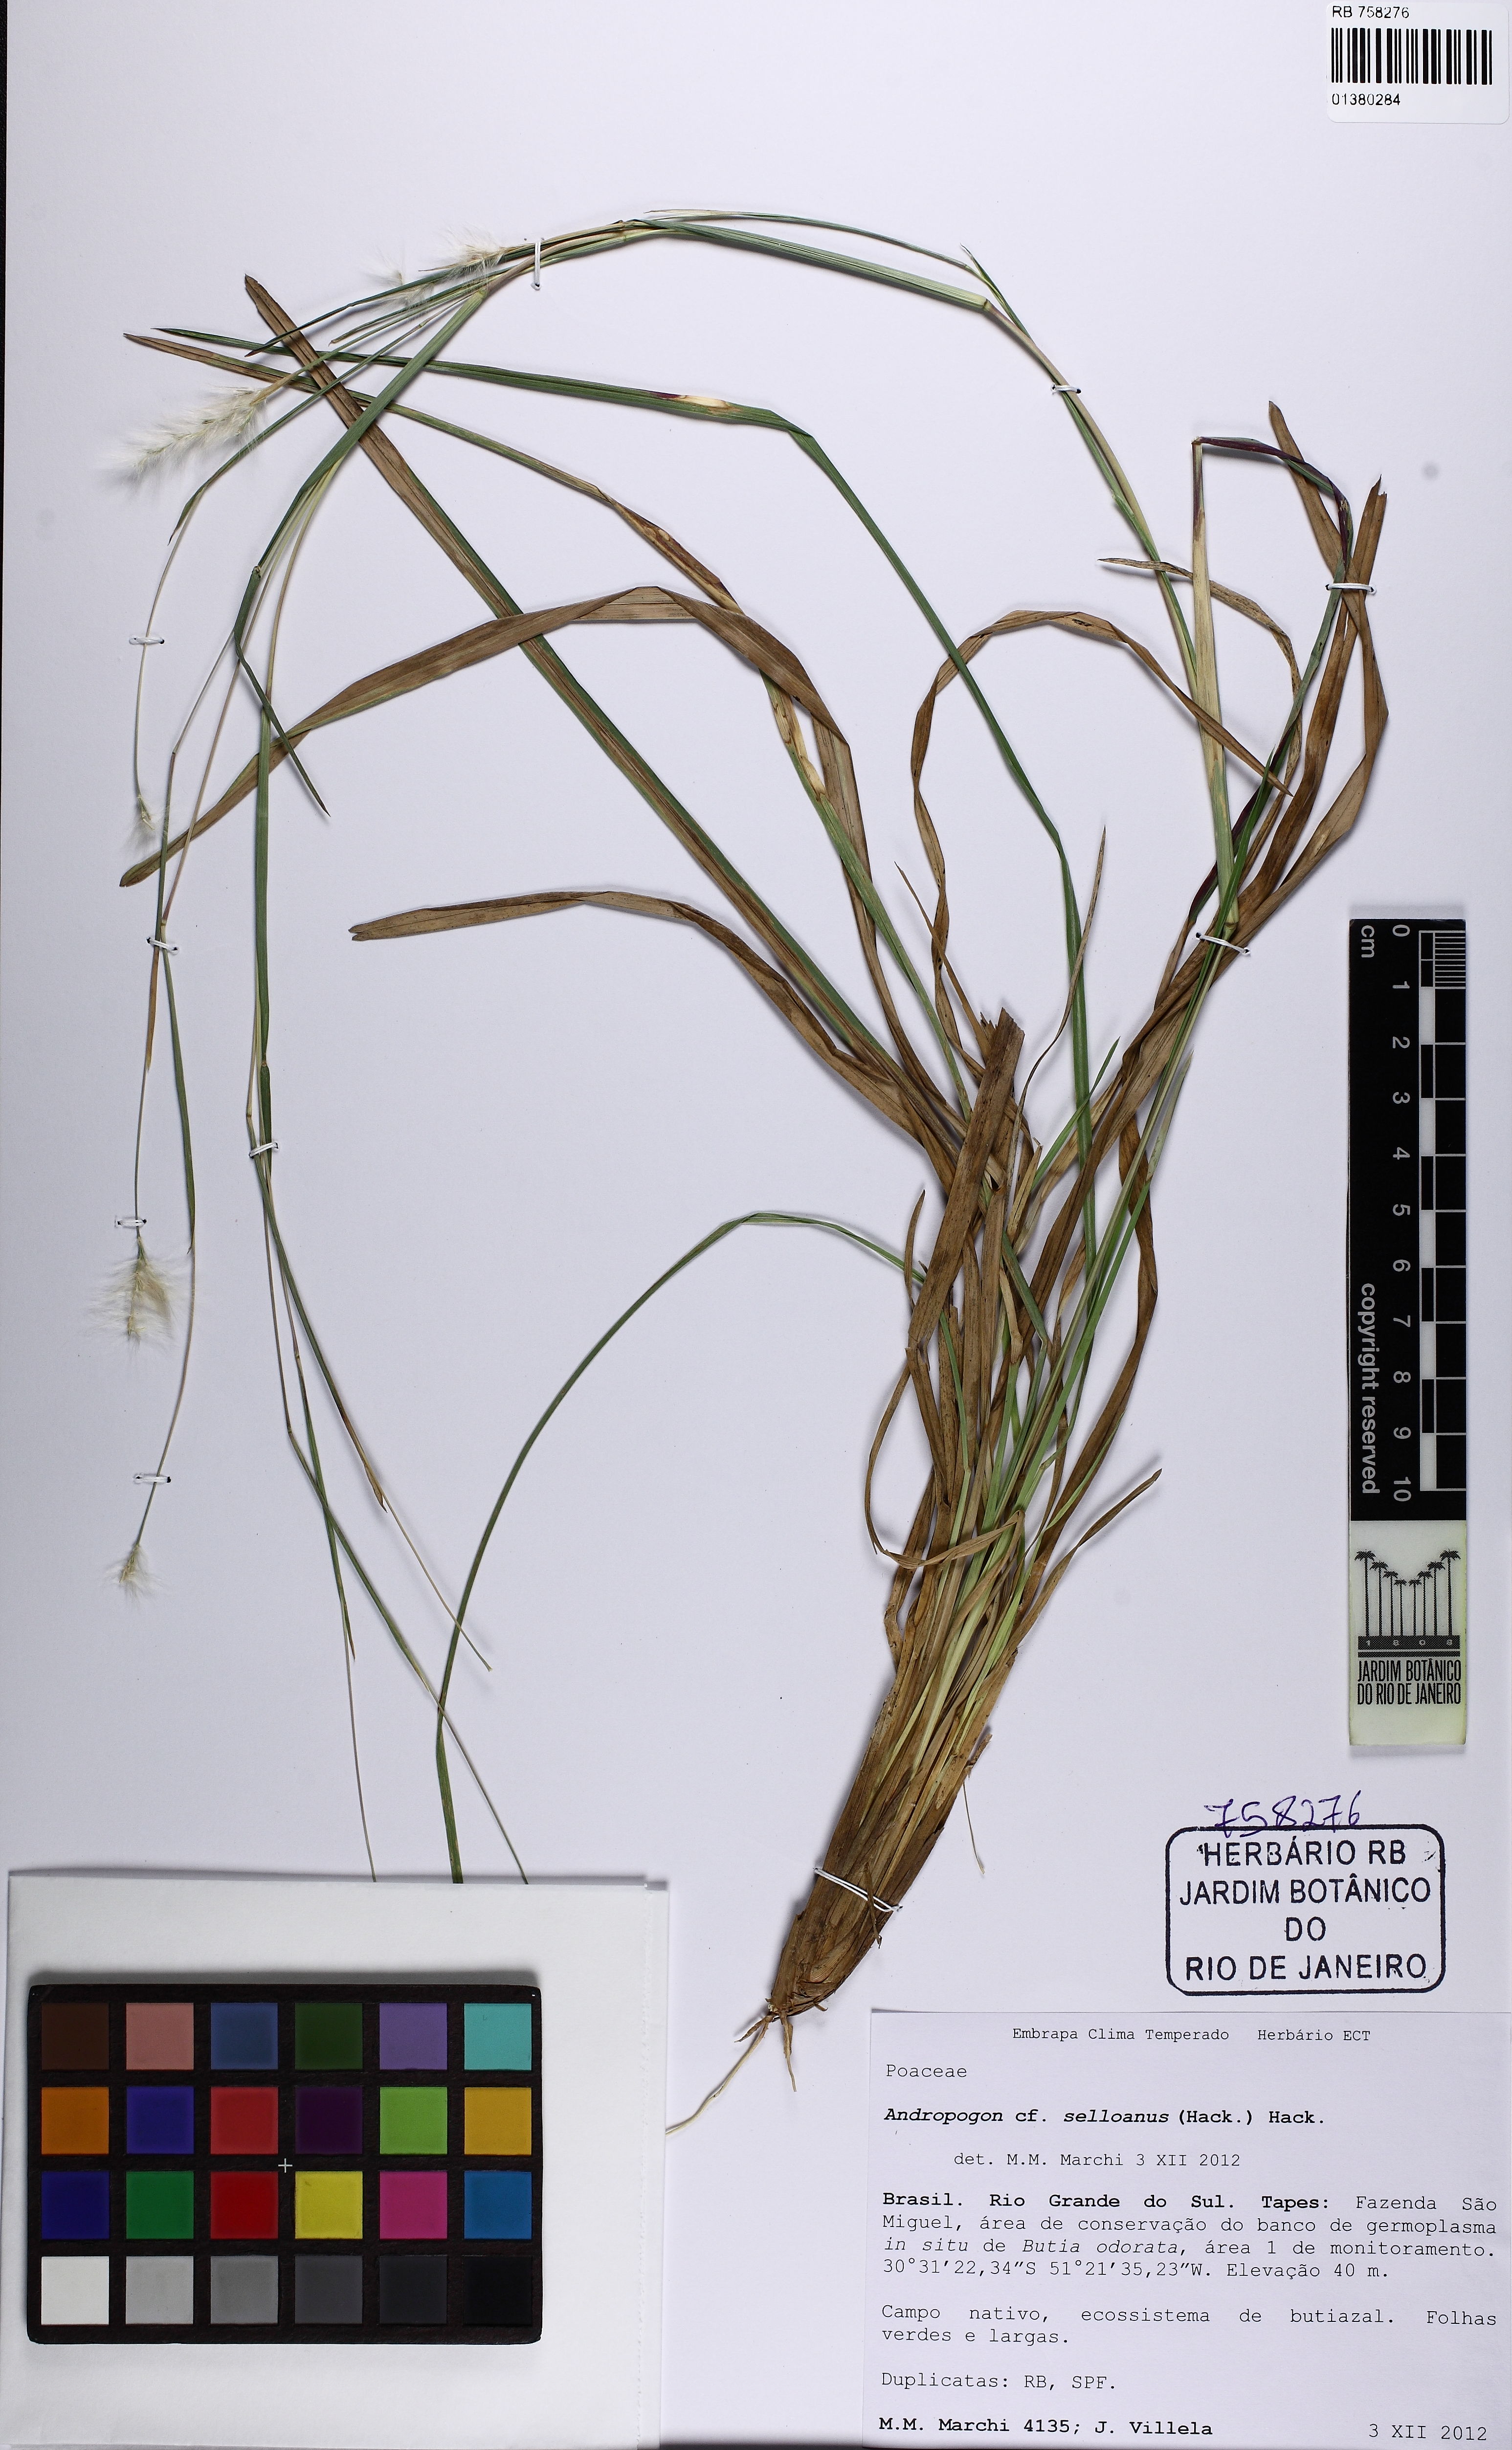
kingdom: Plantae
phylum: Tracheophyta
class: Liliopsida
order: Poales
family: Poaceae
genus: Andropogon
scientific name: Andropogon selloanus
